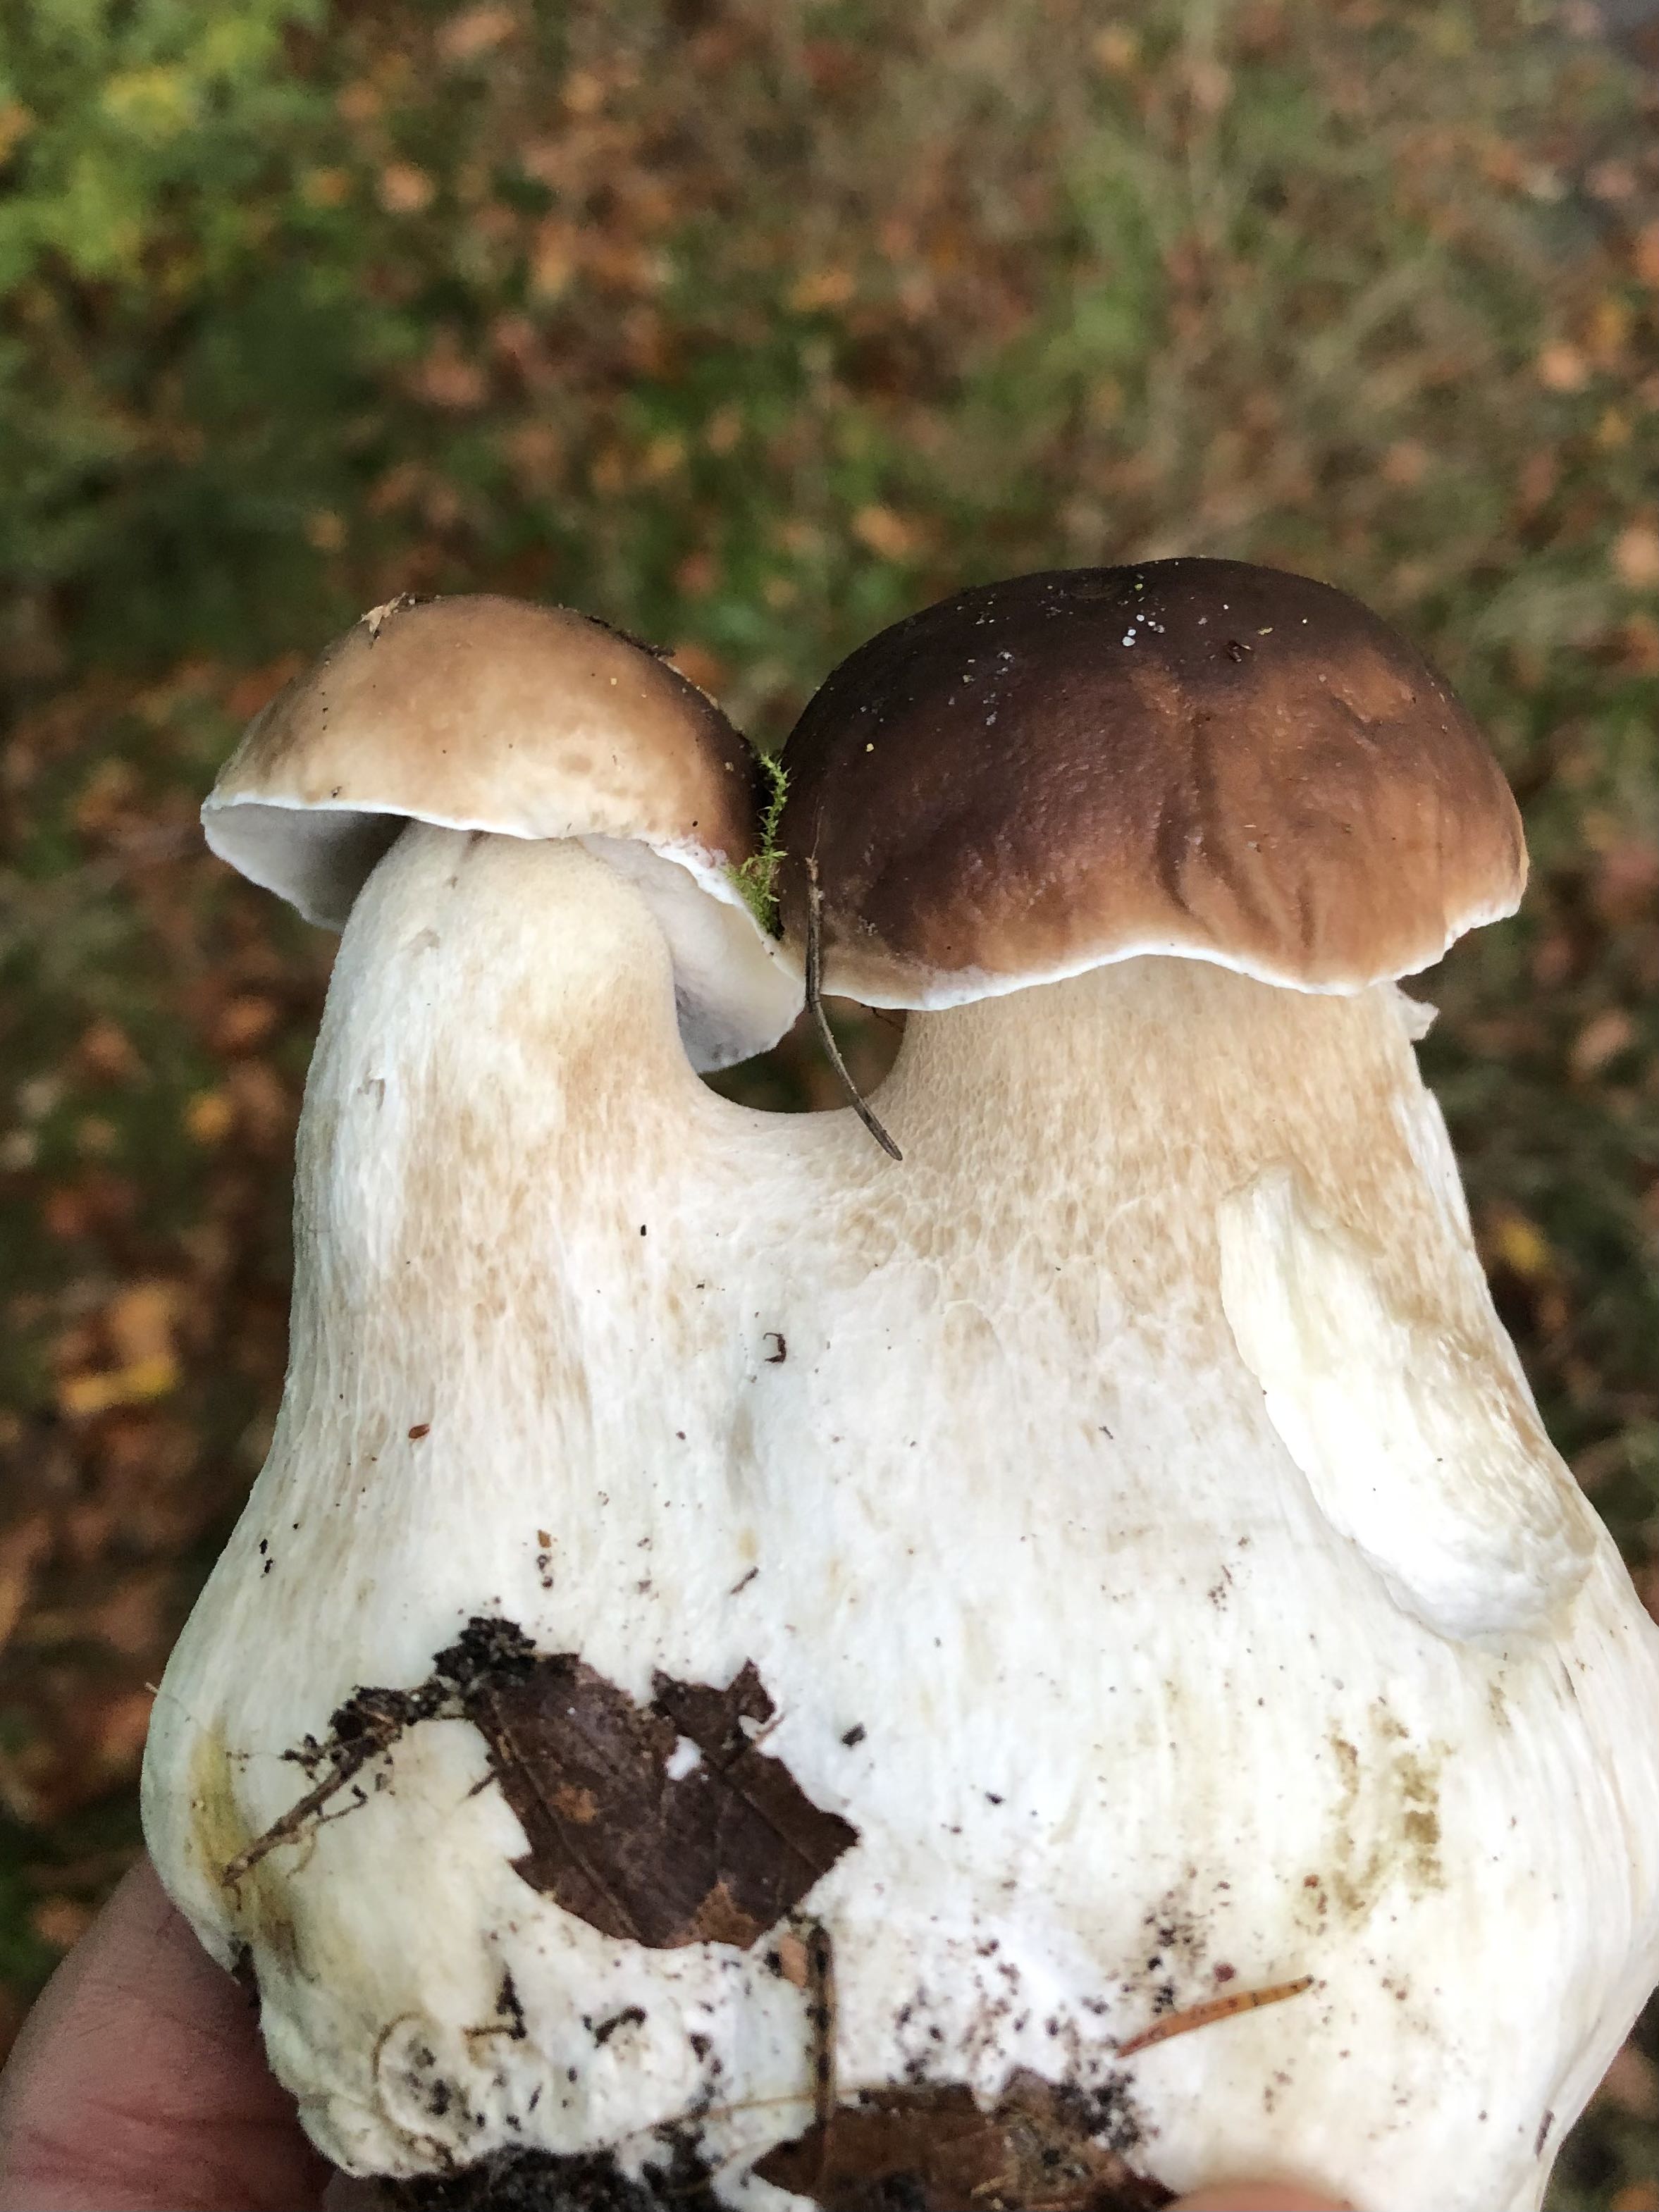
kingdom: Fungi
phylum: Basidiomycota
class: Agaricomycetes
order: Boletales
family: Boletaceae
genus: Boletus
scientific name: Boletus edulis
